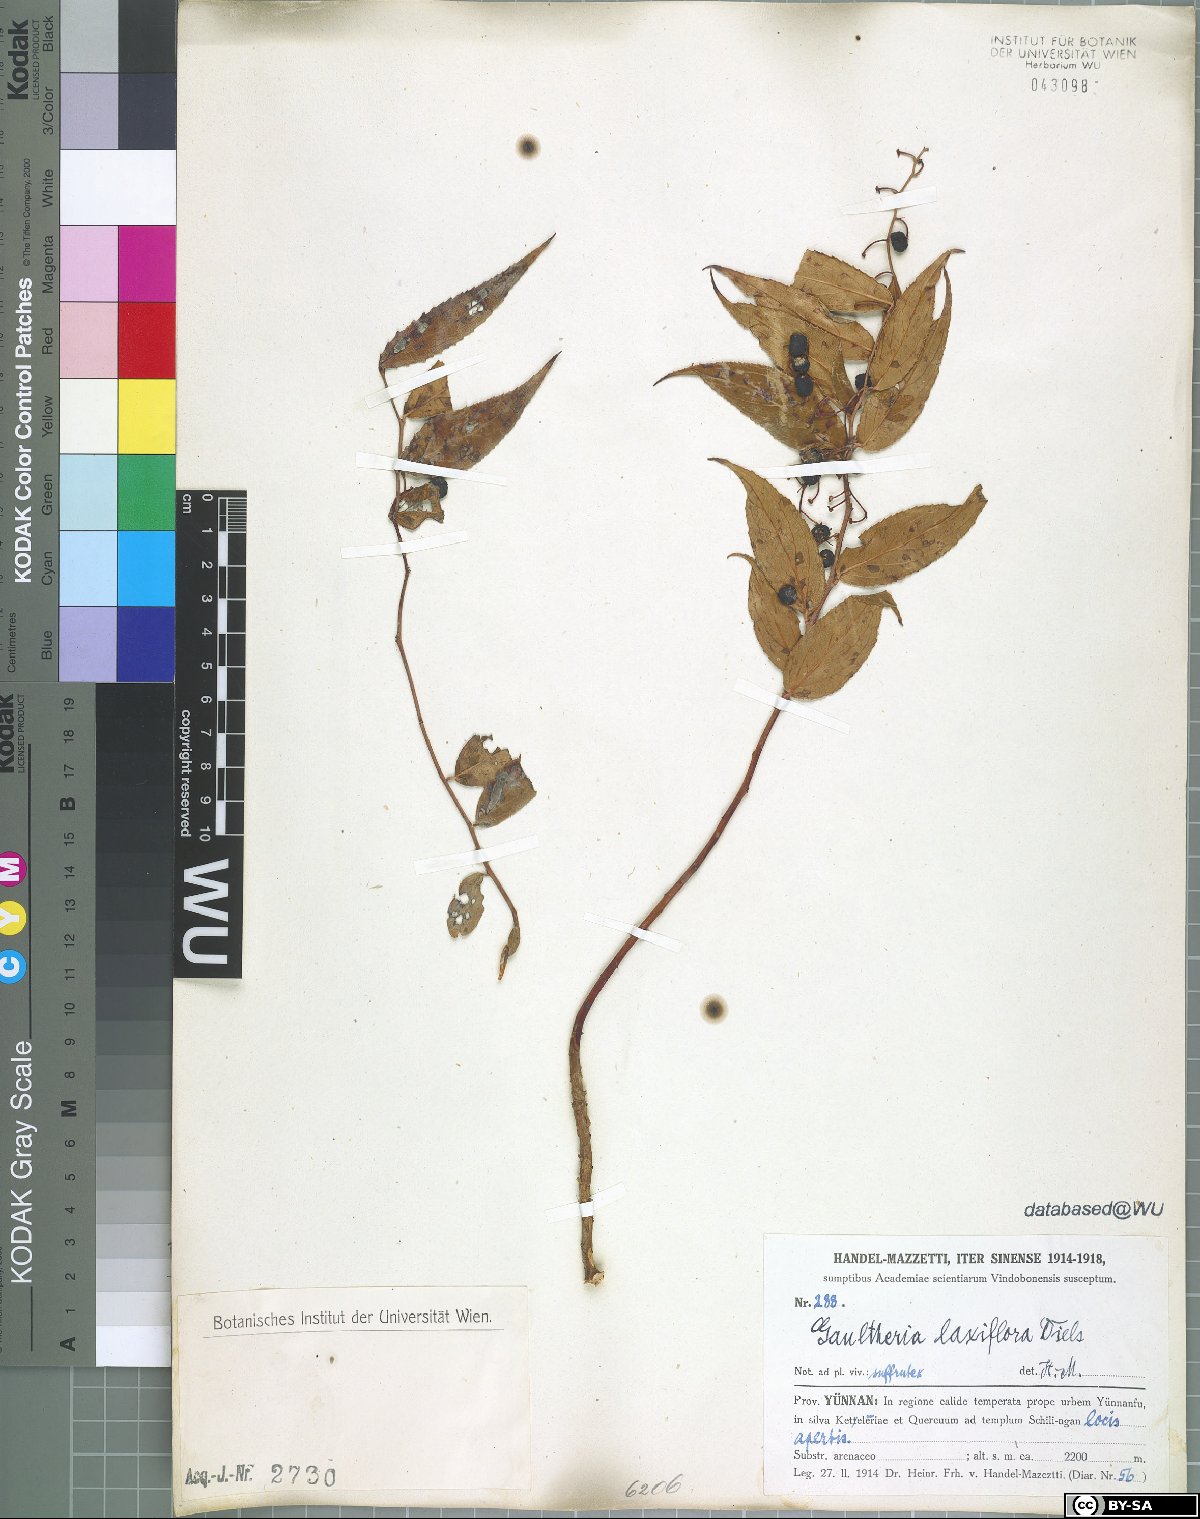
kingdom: Plantae
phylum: Tracheophyta
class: Magnoliopsida
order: Ericales
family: Ericaceae
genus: Gaultheria
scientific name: Gaultheria leucocarpa
